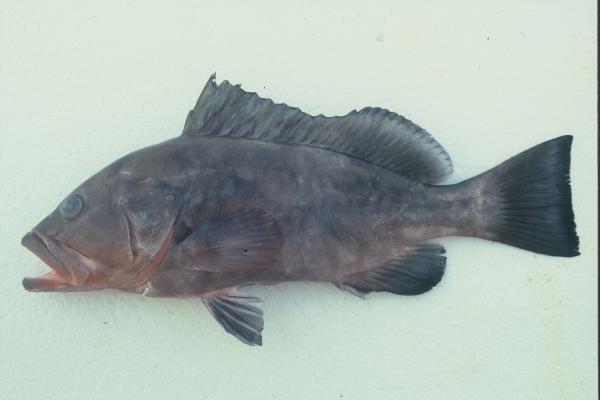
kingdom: Animalia
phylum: Chordata
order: Perciformes
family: Serranidae
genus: Epinephelus
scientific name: Epinephelus morio
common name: Red grouper
